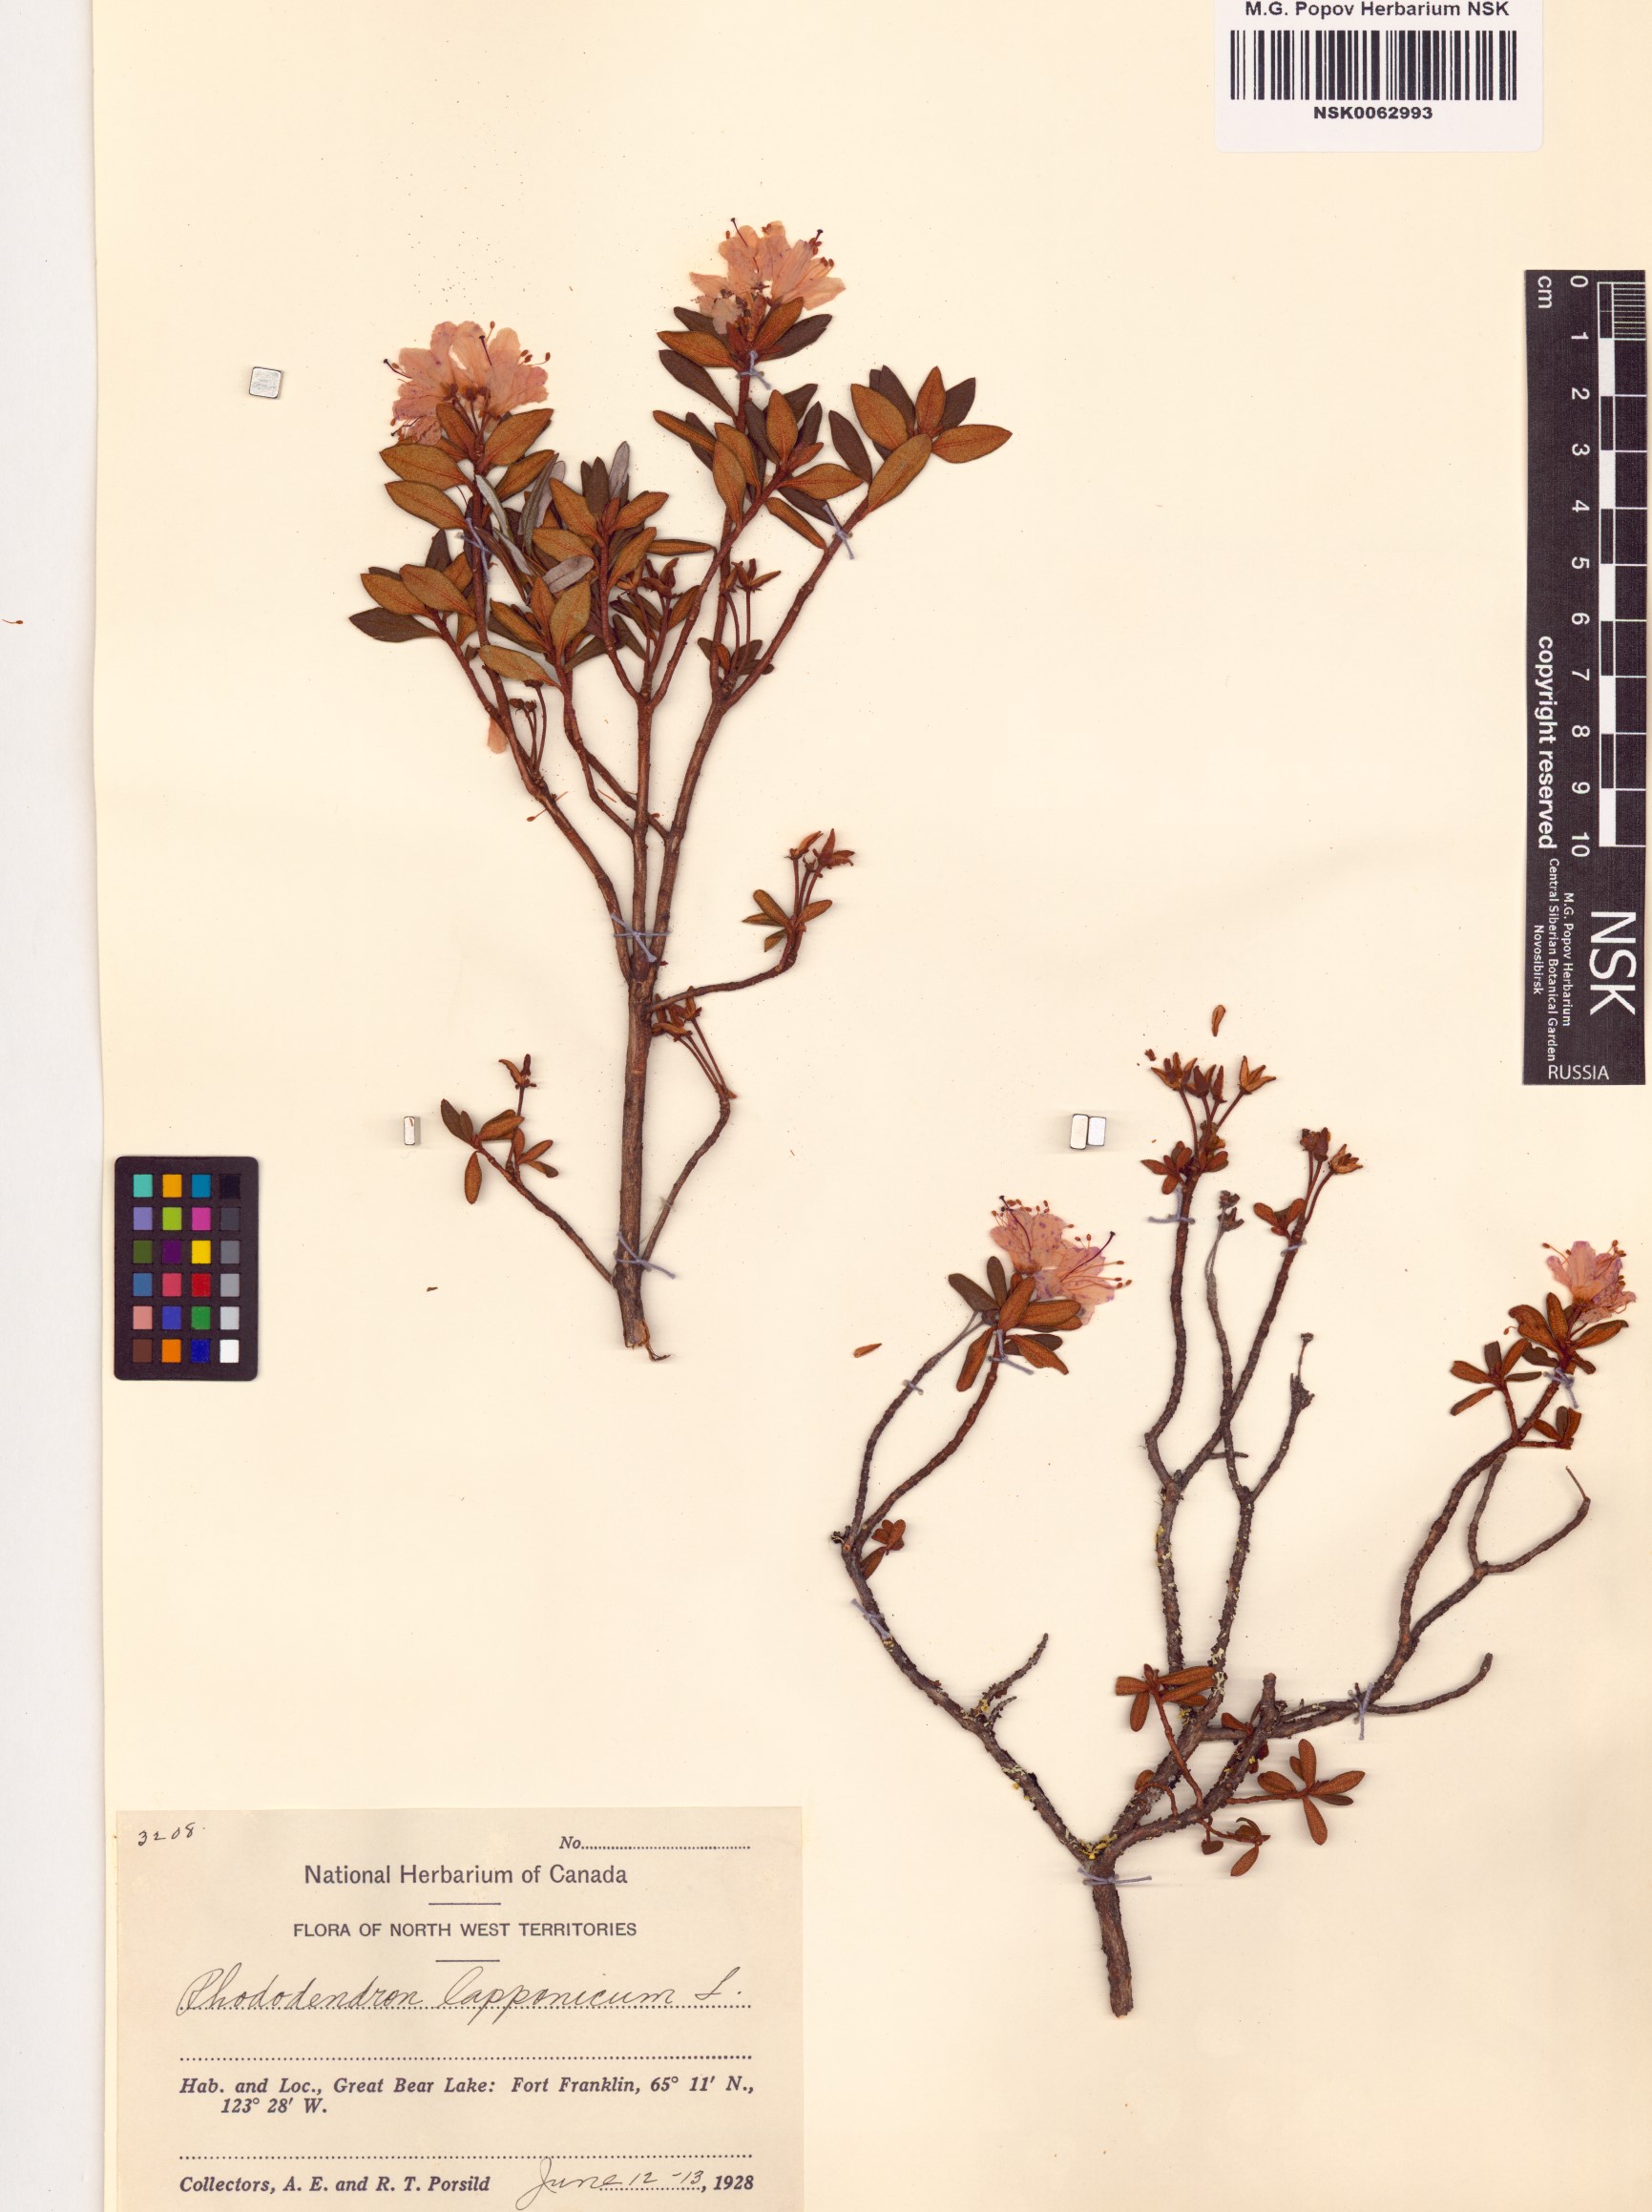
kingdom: Plantae
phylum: Tracheophyta
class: Magnoliopsida
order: Ericales
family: Ericaceae
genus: Rhododendron
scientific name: Rhododendron lapponicum
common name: Lapland rhododendron
